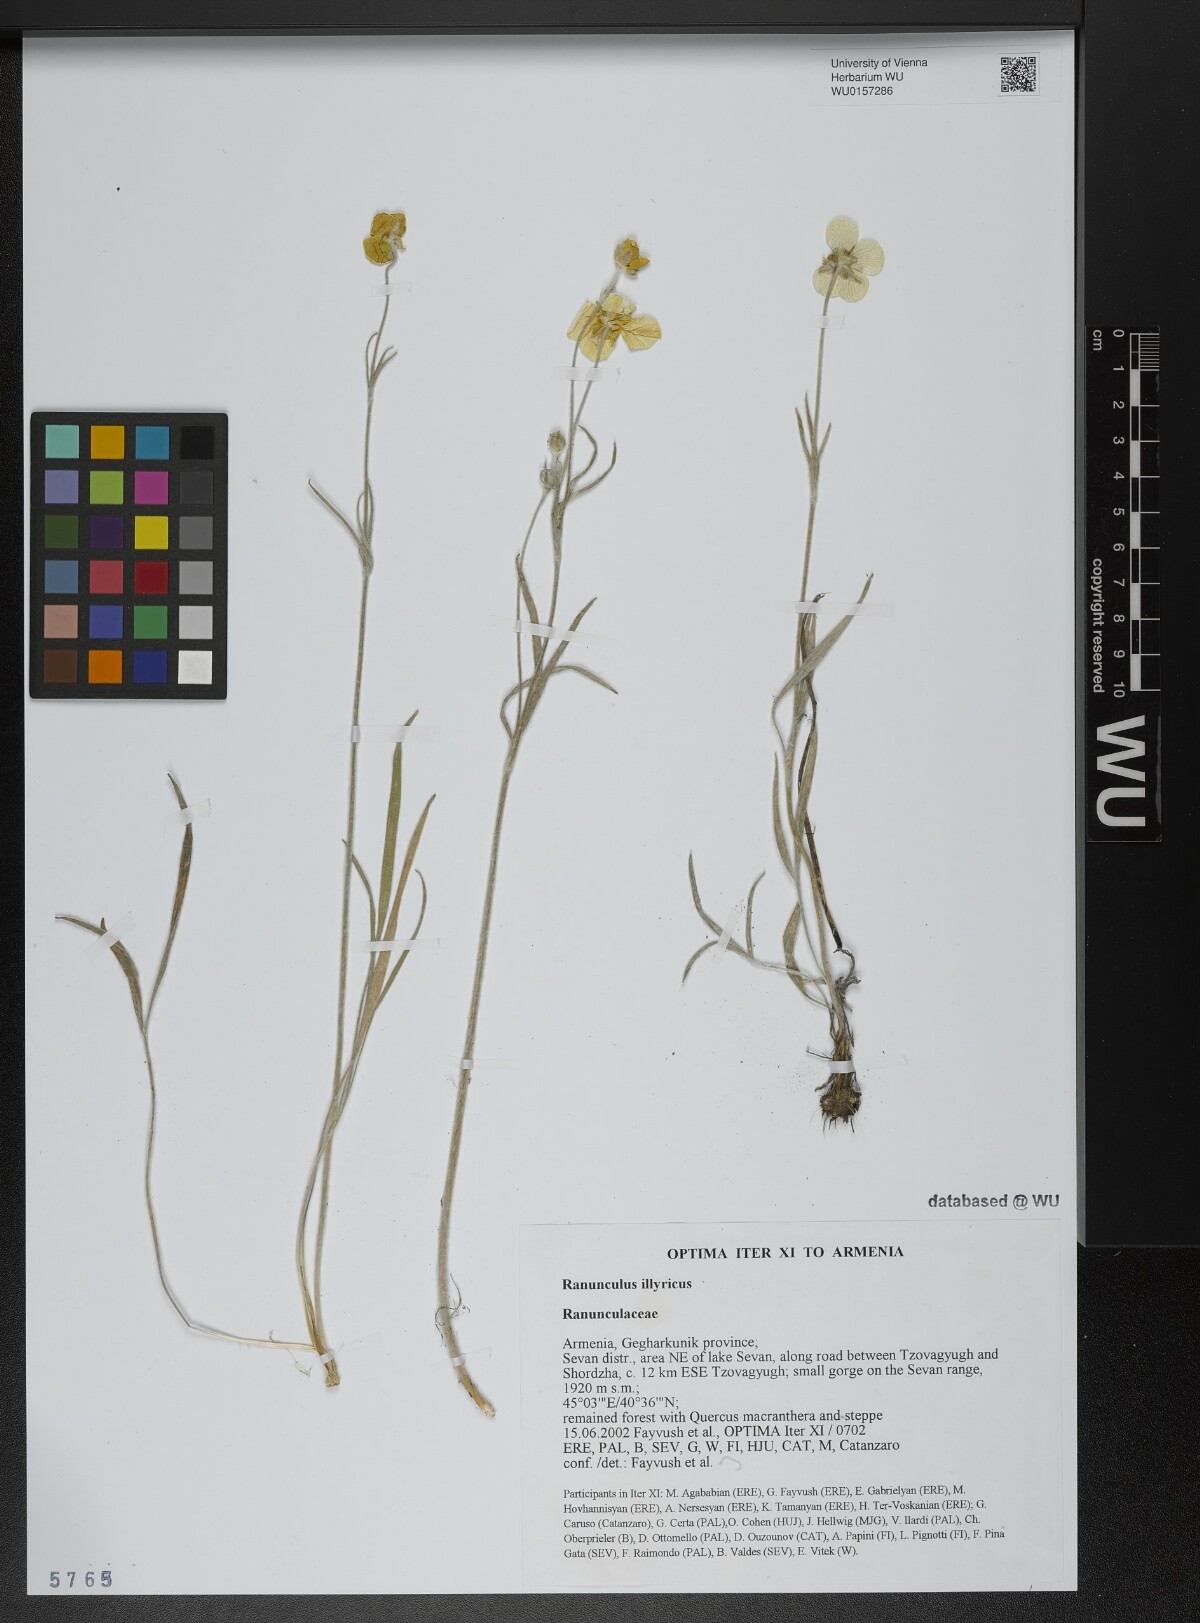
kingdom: Plantae
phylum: Tracheophyta
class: Magnoliopsida
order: Ranunculales
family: Ranunculaceae
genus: Ranunculus
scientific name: Ranunculus illyricus
